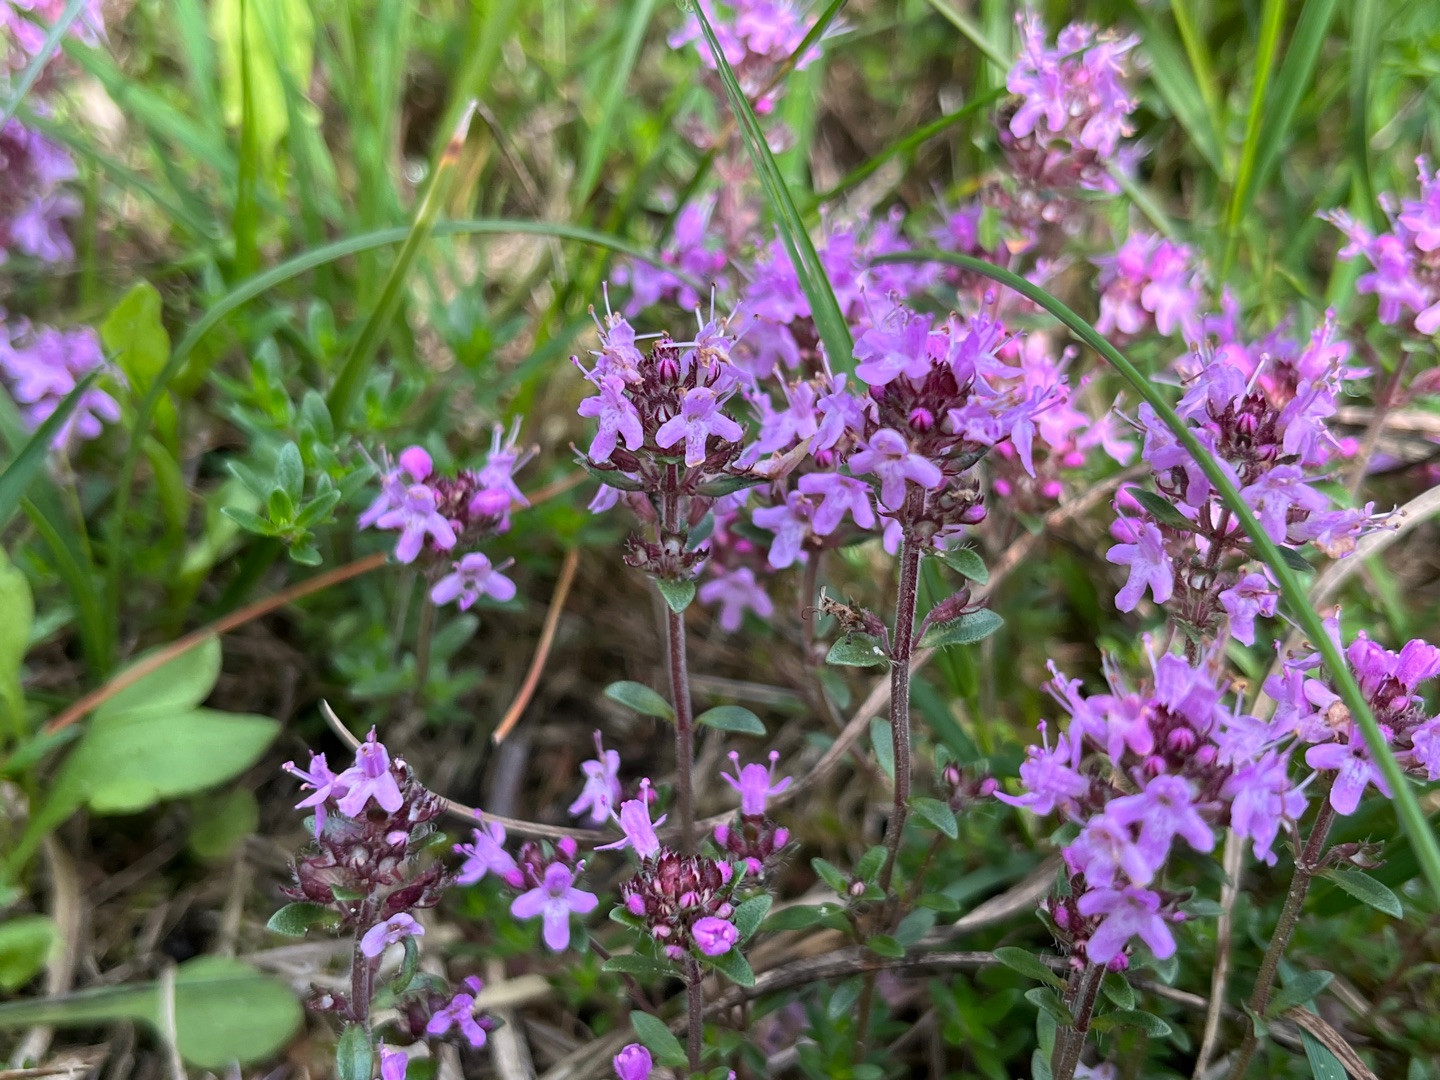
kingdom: Plantae
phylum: Tracheophyta
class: Magnoliopsida
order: Lamiales
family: Lamiaceae
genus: Thymus
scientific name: Thymus serpyllum
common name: Smalbladet timian
